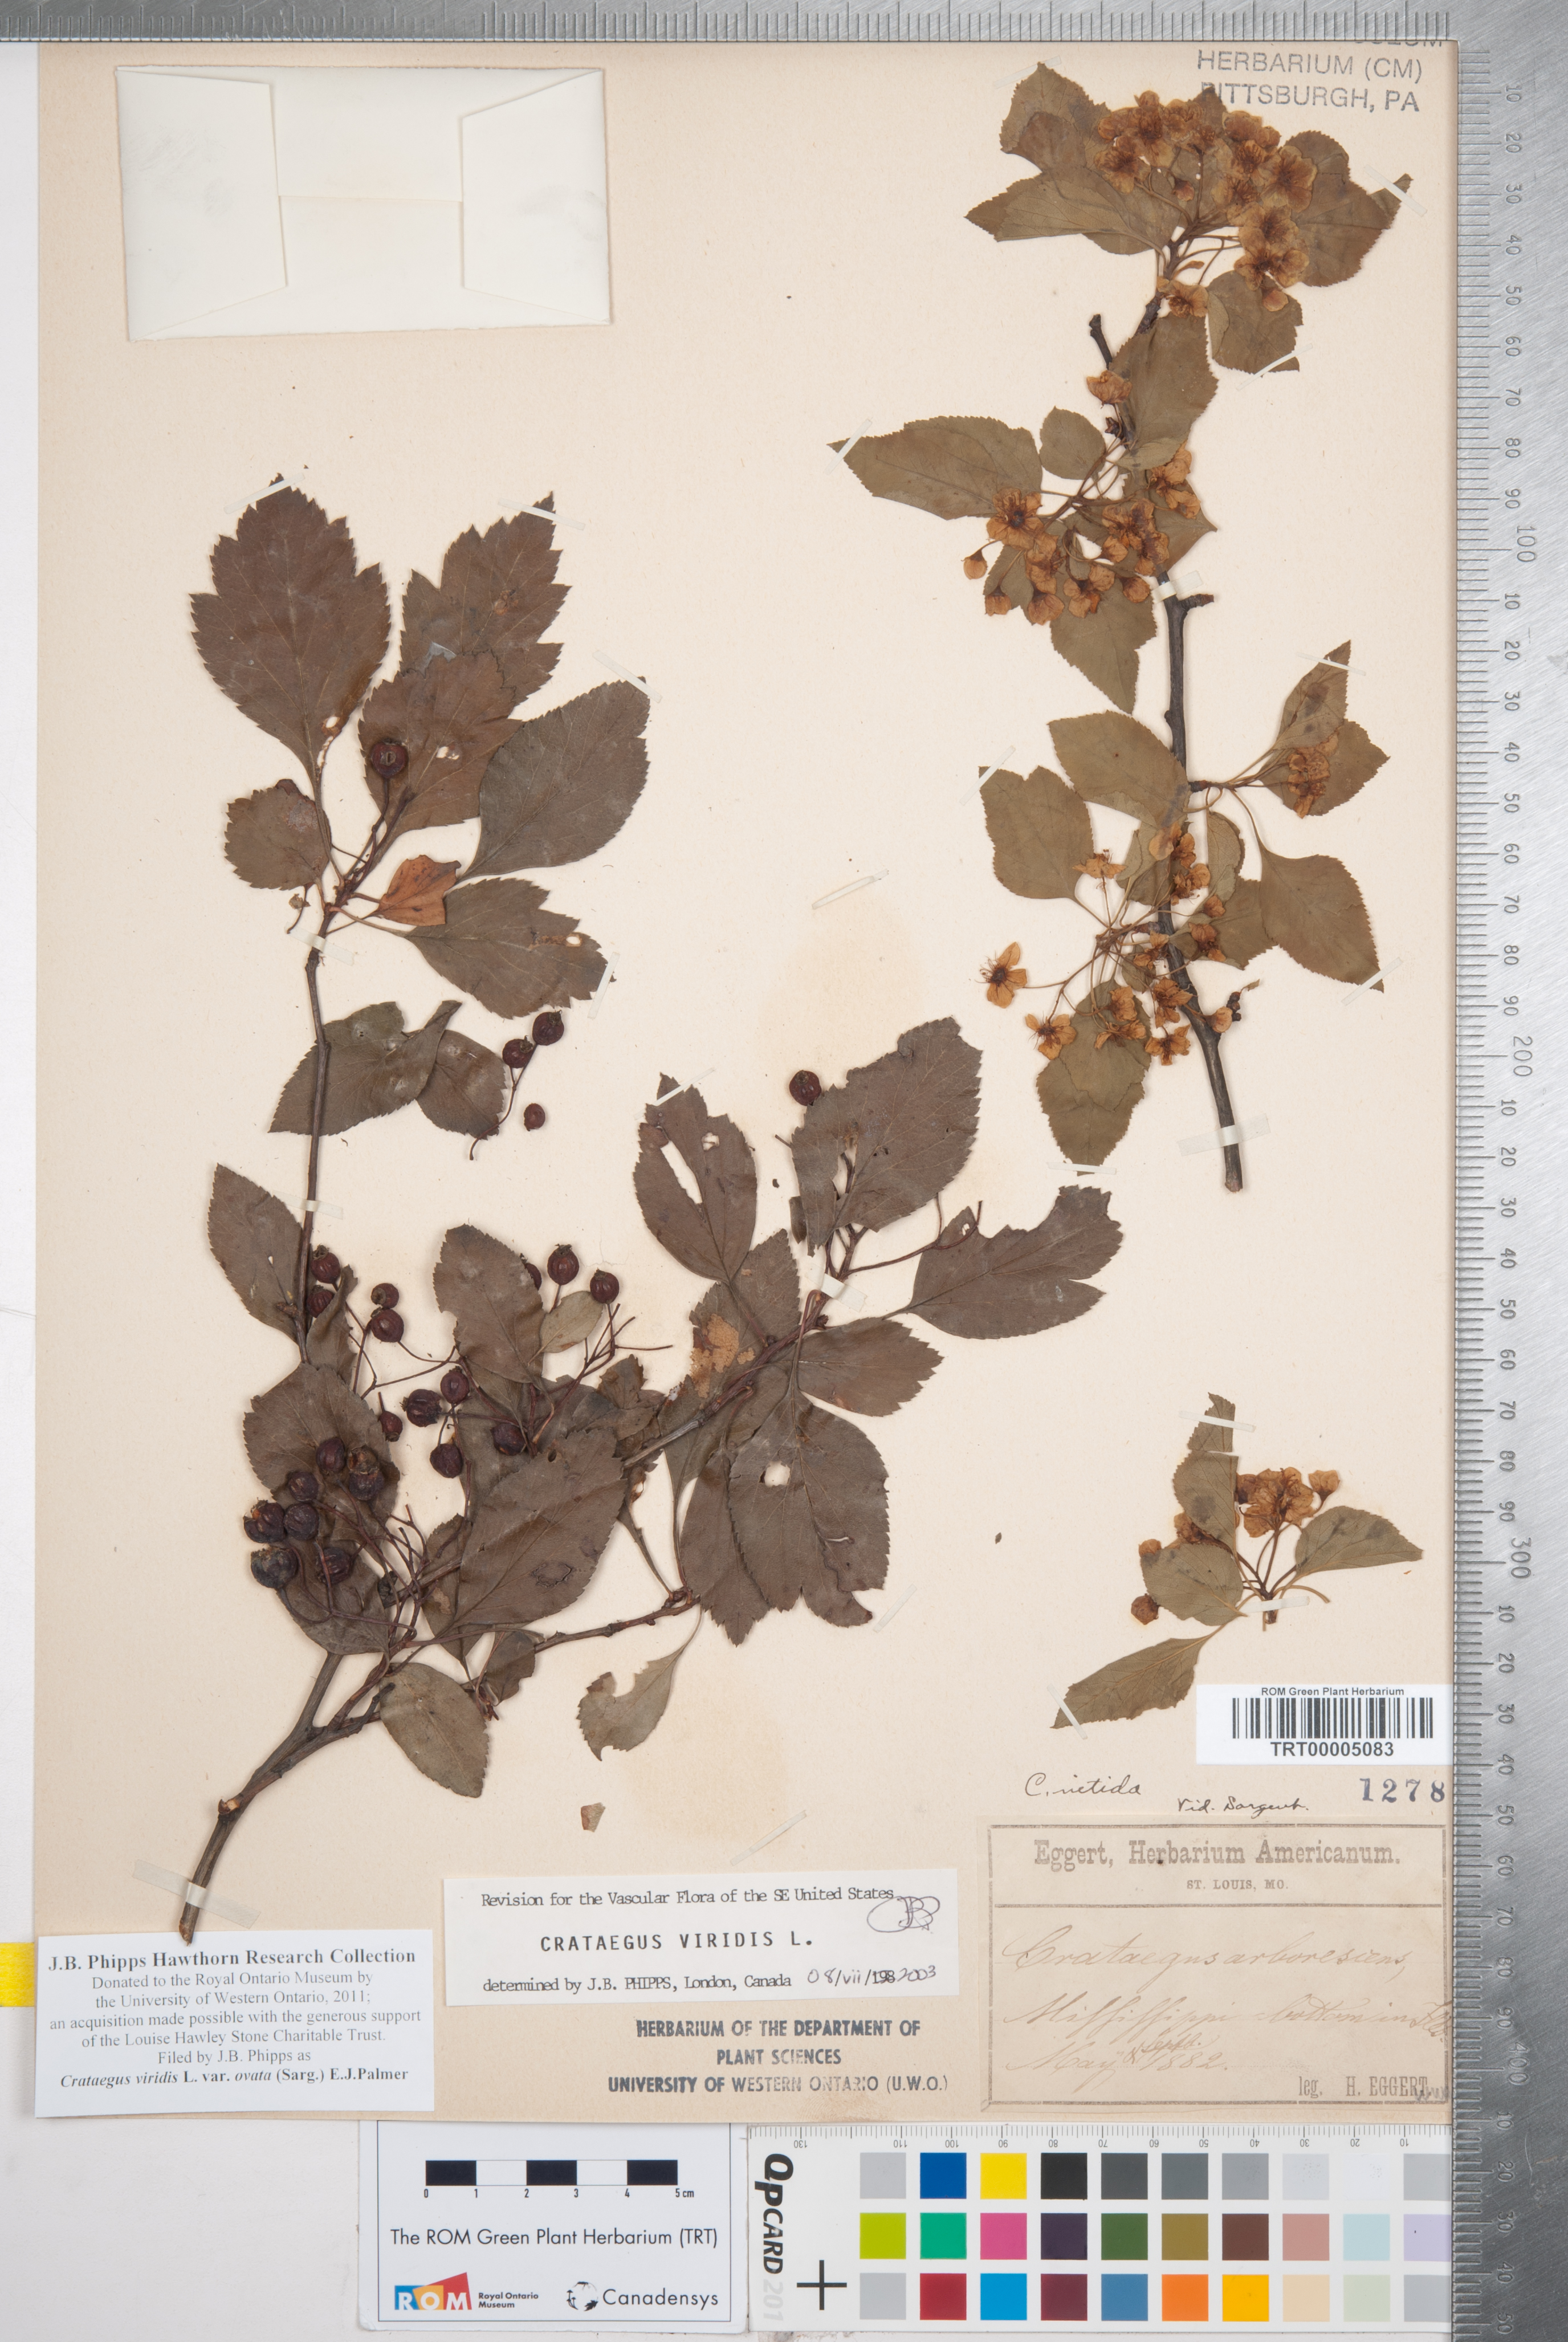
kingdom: Plantae
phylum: Tracheophyta
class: Magnoliopsida
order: Rosales
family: Rosaceae
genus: Crataegus
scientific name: Crataegus viridis
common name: Southernthorn
